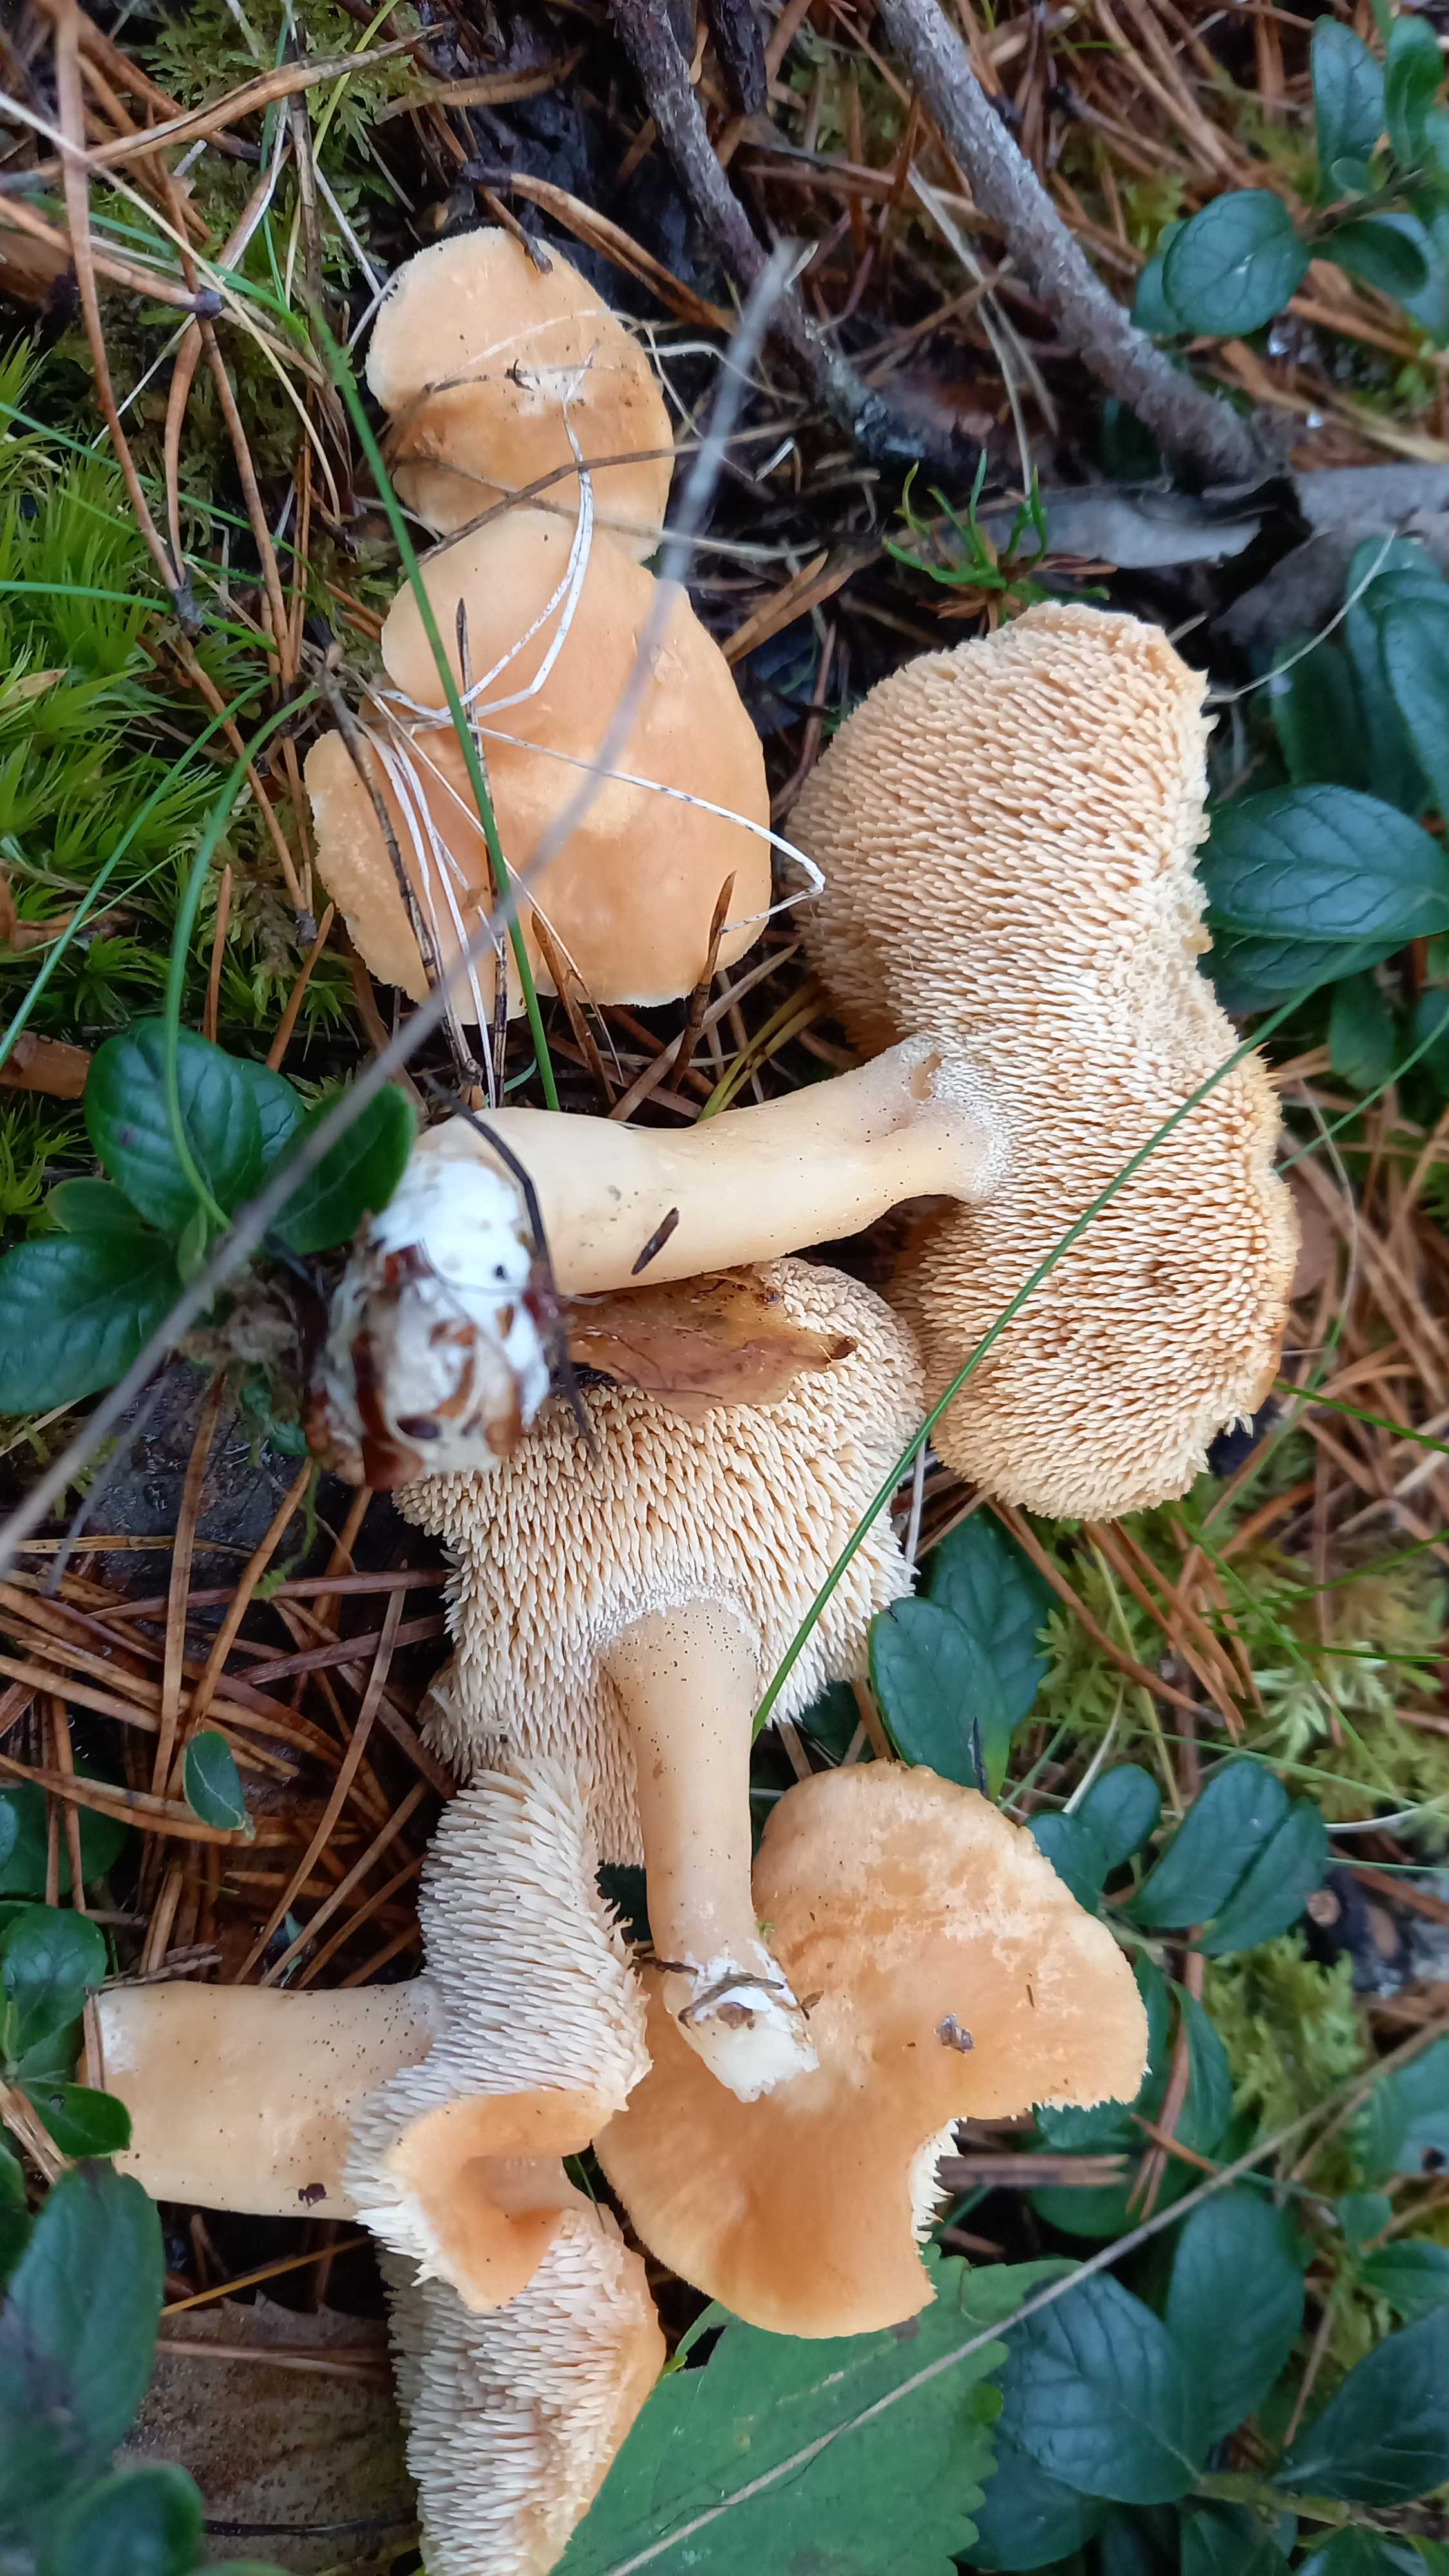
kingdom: Fungi
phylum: Basidiomycota
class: Agaricomycetes
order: Cantharellales
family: Hydnaceae
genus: Hydnum
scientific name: Hydnum
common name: pigsvamp
